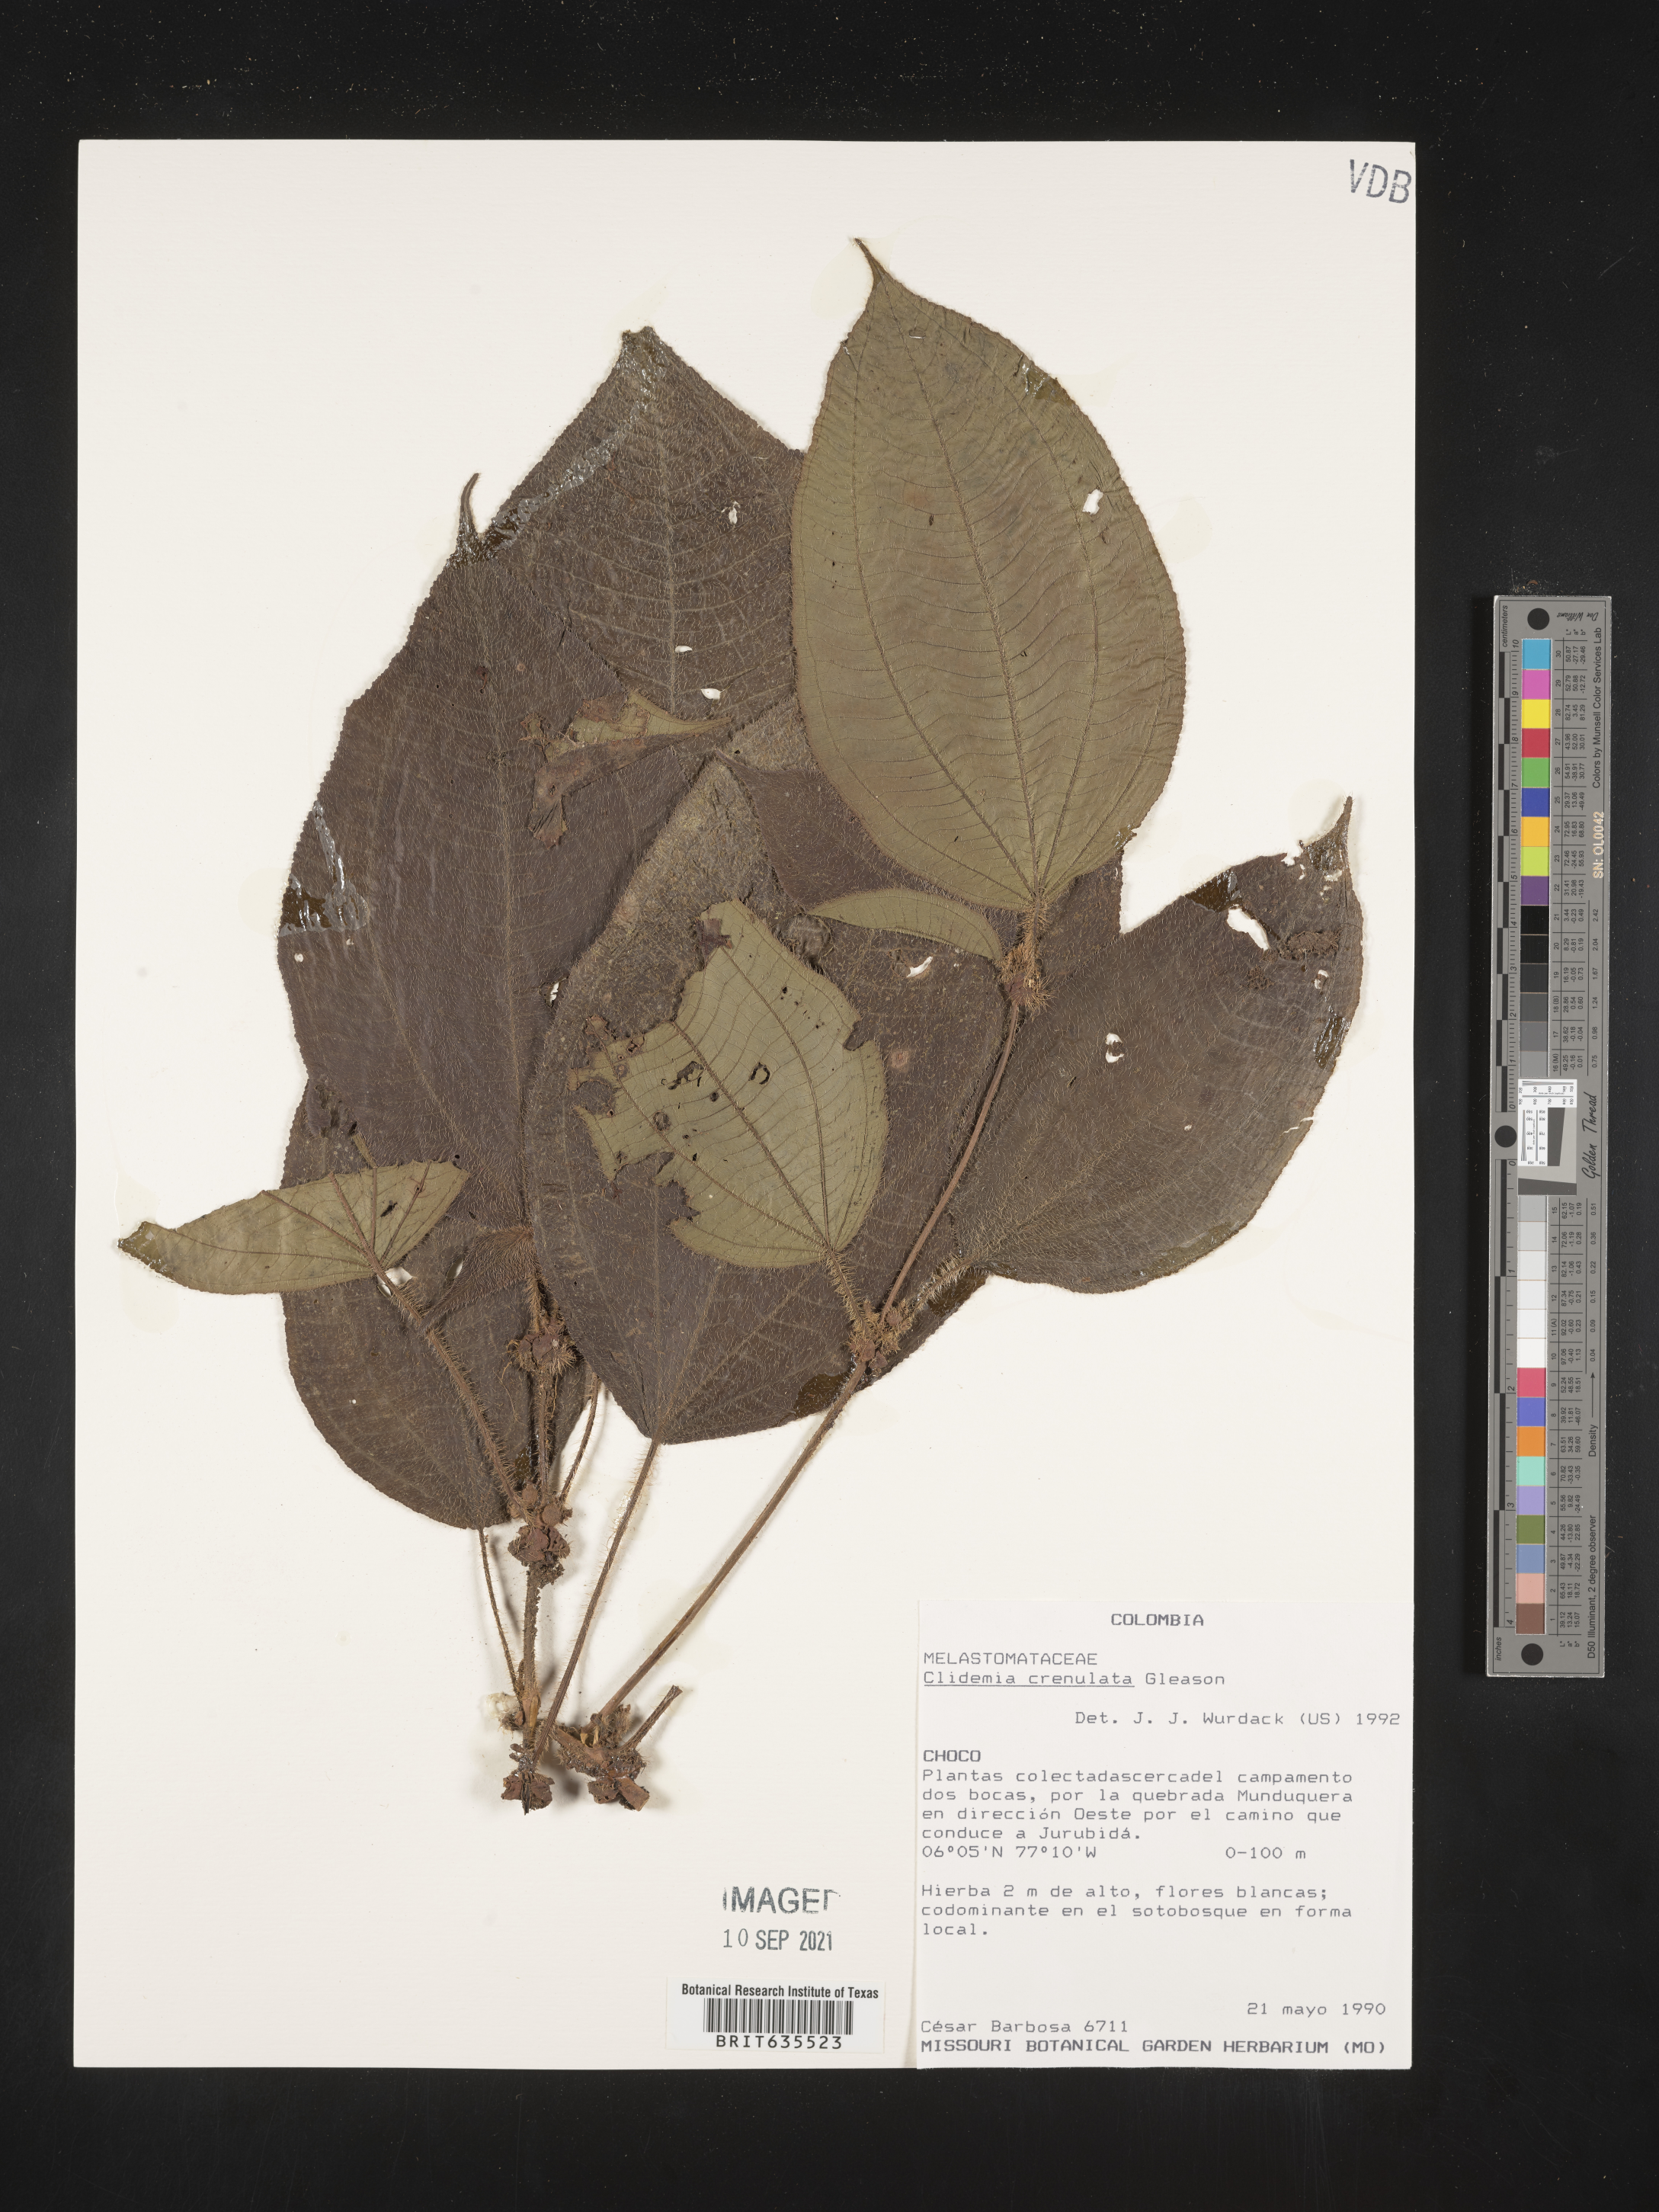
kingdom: Plantae
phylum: Tracheophyta
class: Magnoliopsida
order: Myrtales
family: Melastomataceae
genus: Miconia
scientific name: Miconia
